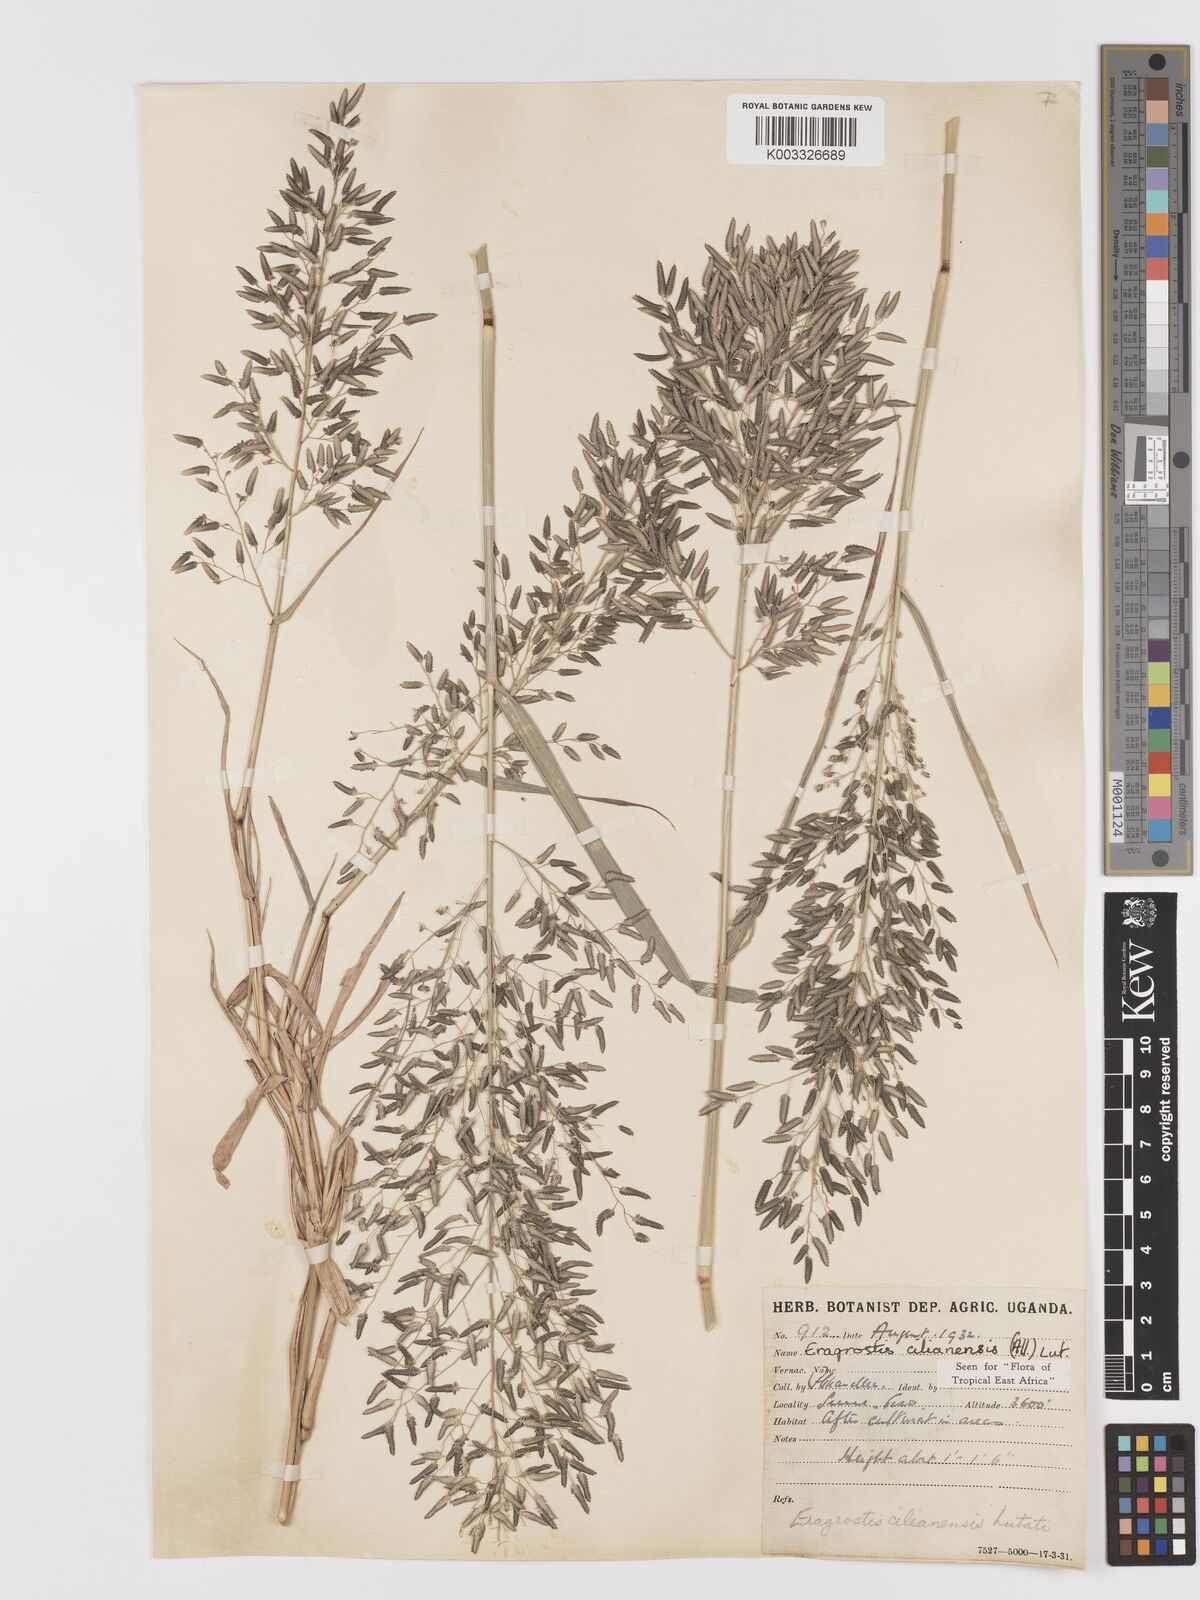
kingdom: Plantae
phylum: Tracheophyta
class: Liliopsida
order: Poales
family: Poaceae
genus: Eragrostis
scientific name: Eragrostis cilianensis
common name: Stinkgrass
